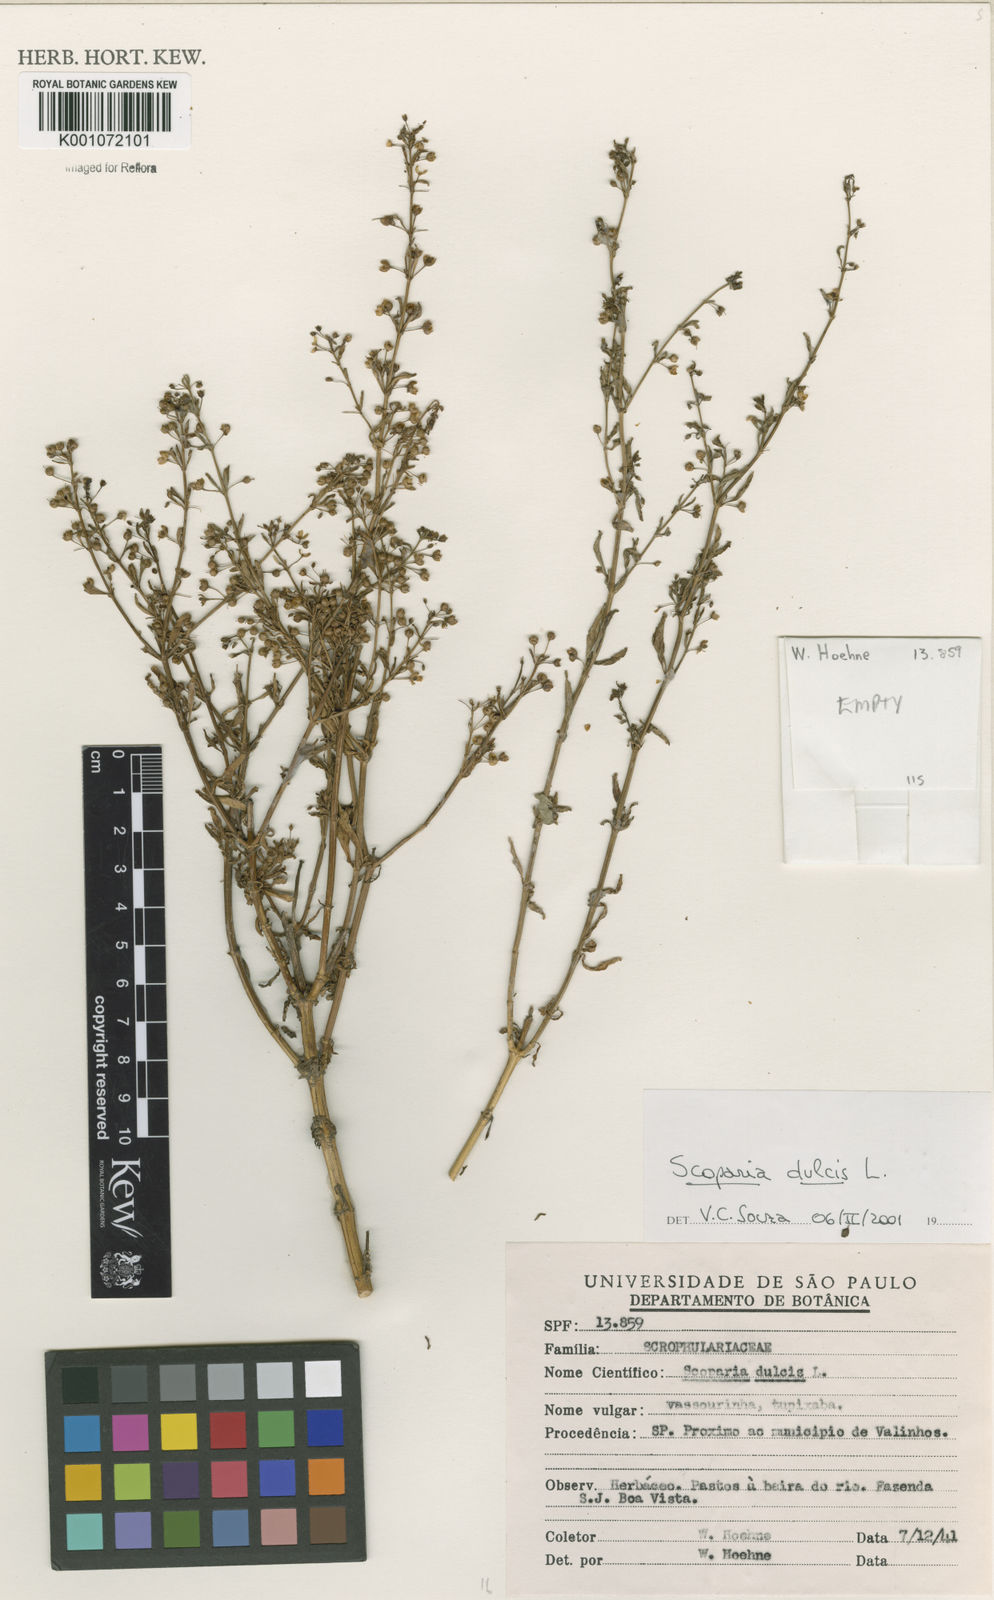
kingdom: Plantae
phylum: Tracheophyta
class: Magnoliopsida
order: Lamiales
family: Plantaginaceae
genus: Scoparia
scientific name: Scoparia dulcis
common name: Scoparia-weed
